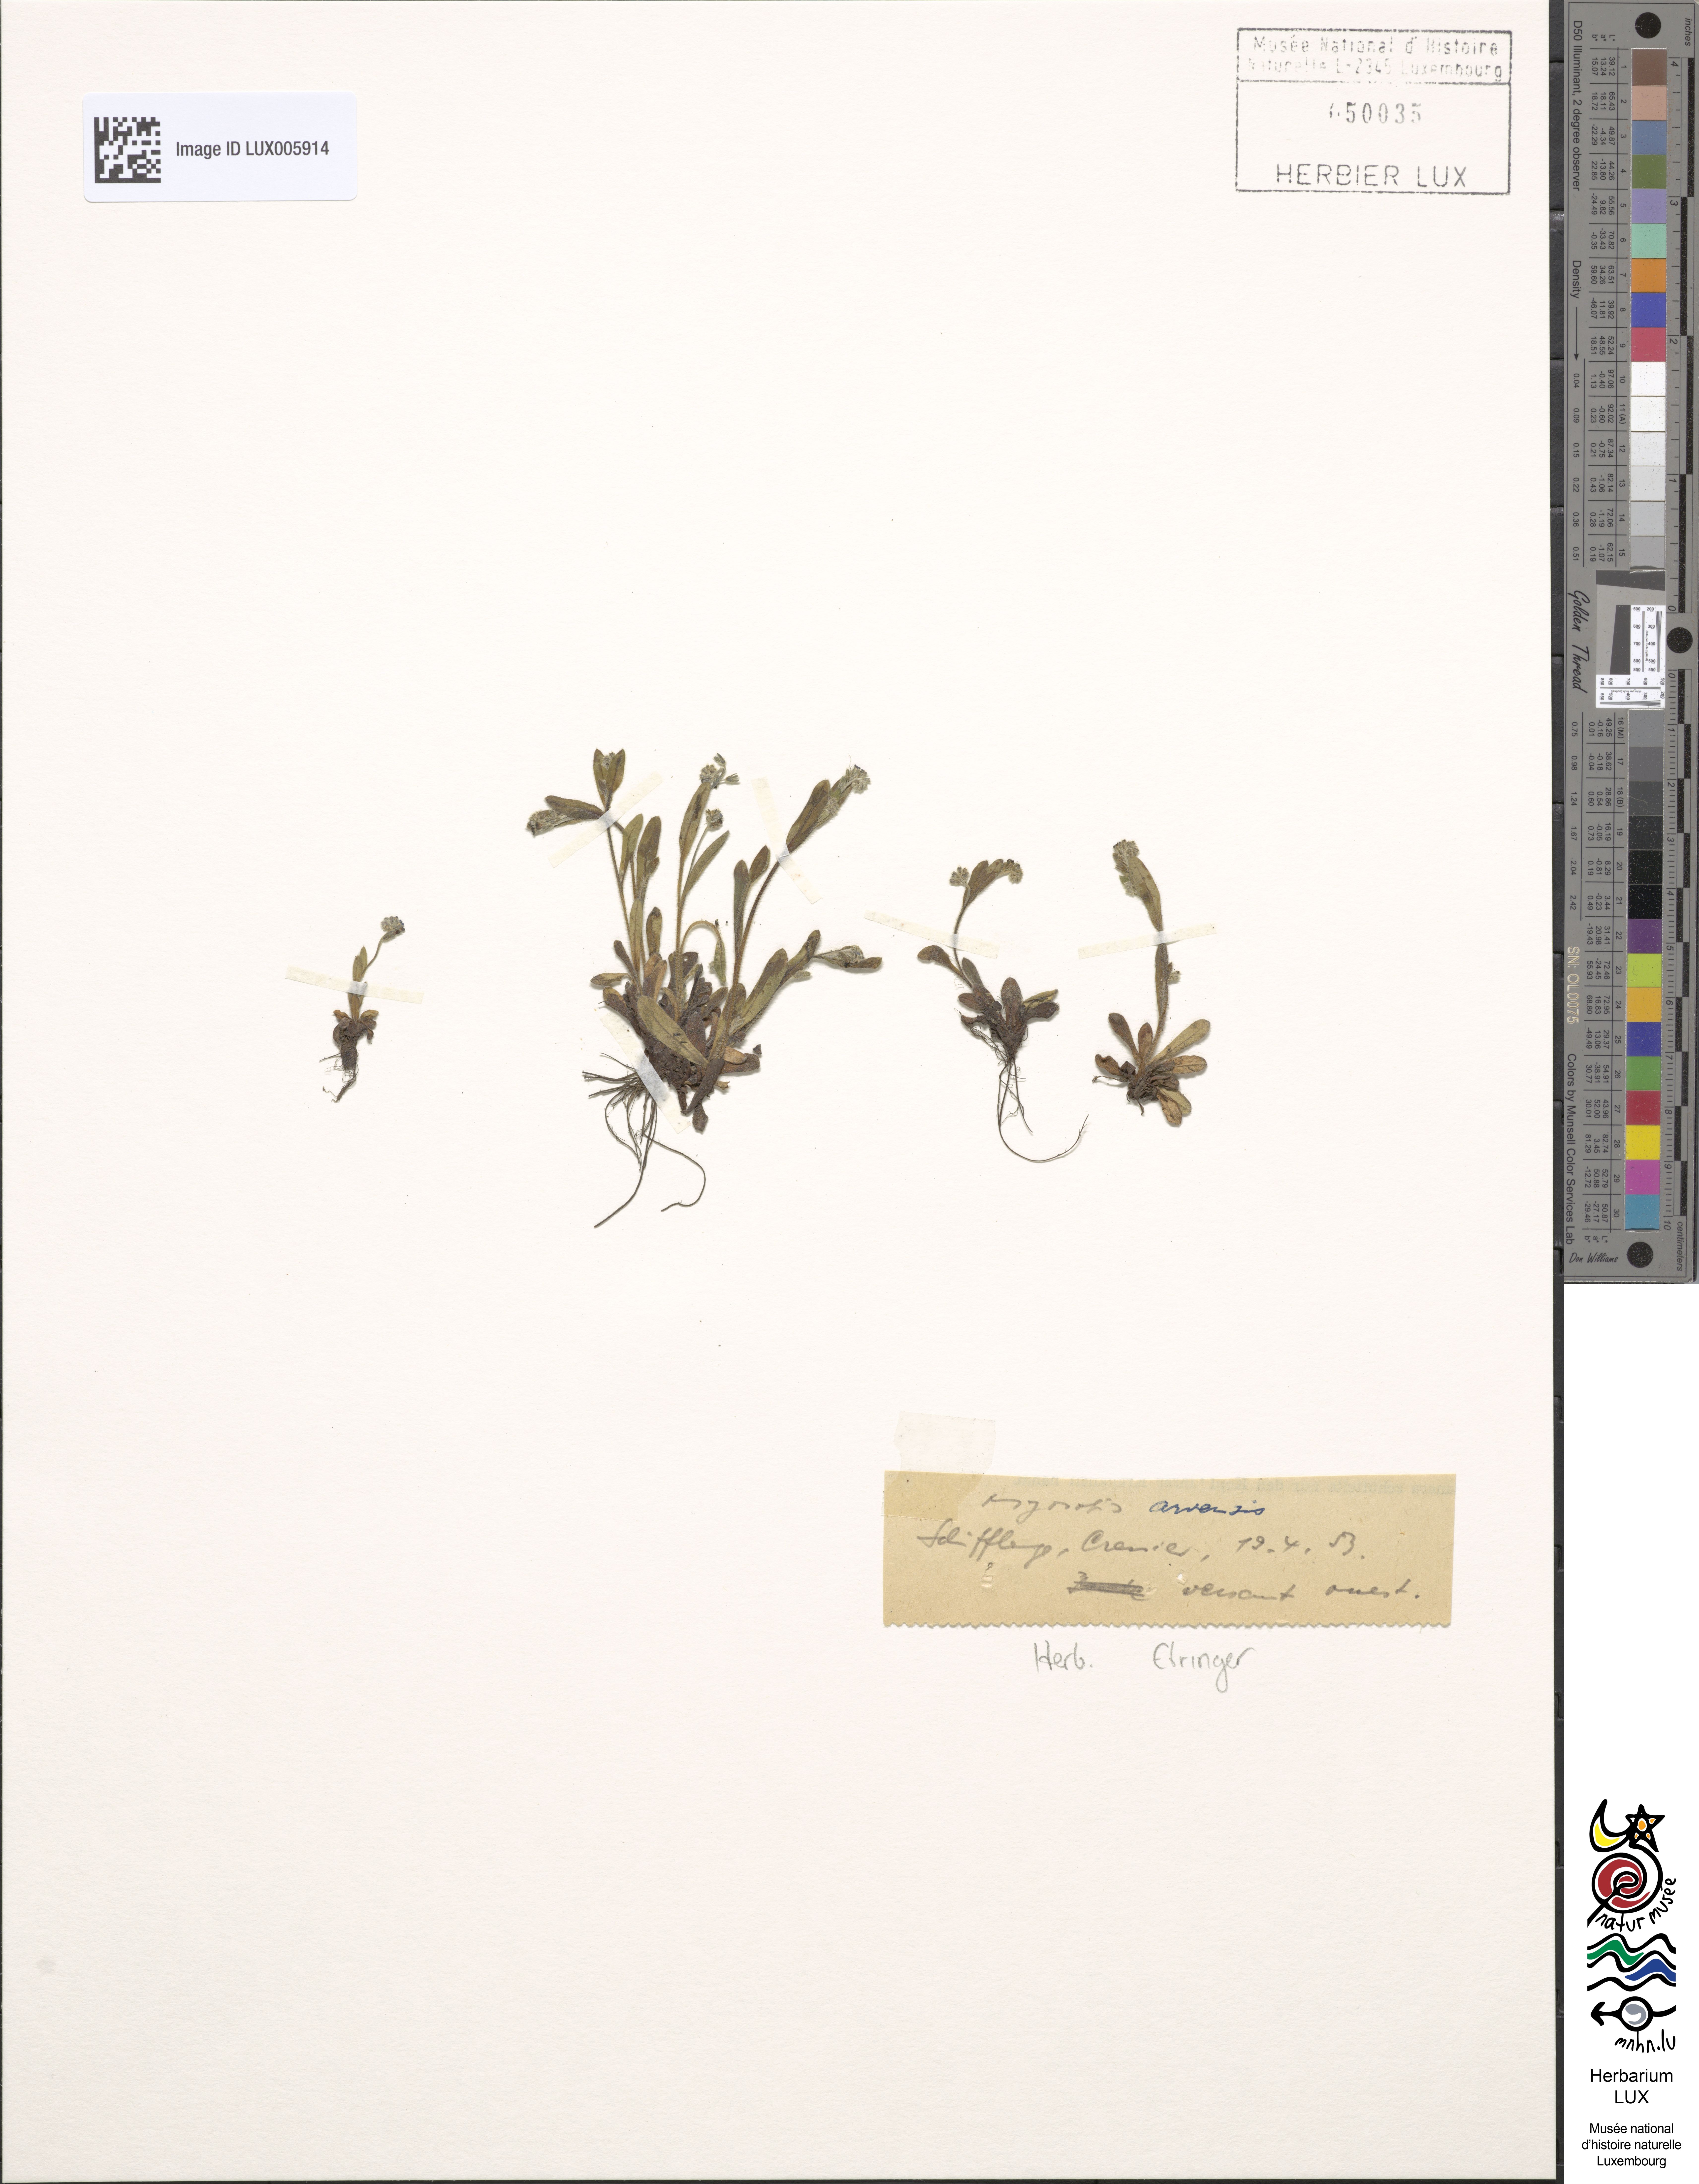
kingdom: Plantae
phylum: Tracheophyta
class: Magnoliopsida
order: Boraginales
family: Boraginaceae
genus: Myosotis
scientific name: Myosotis arvensis
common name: Field forget-me-not
